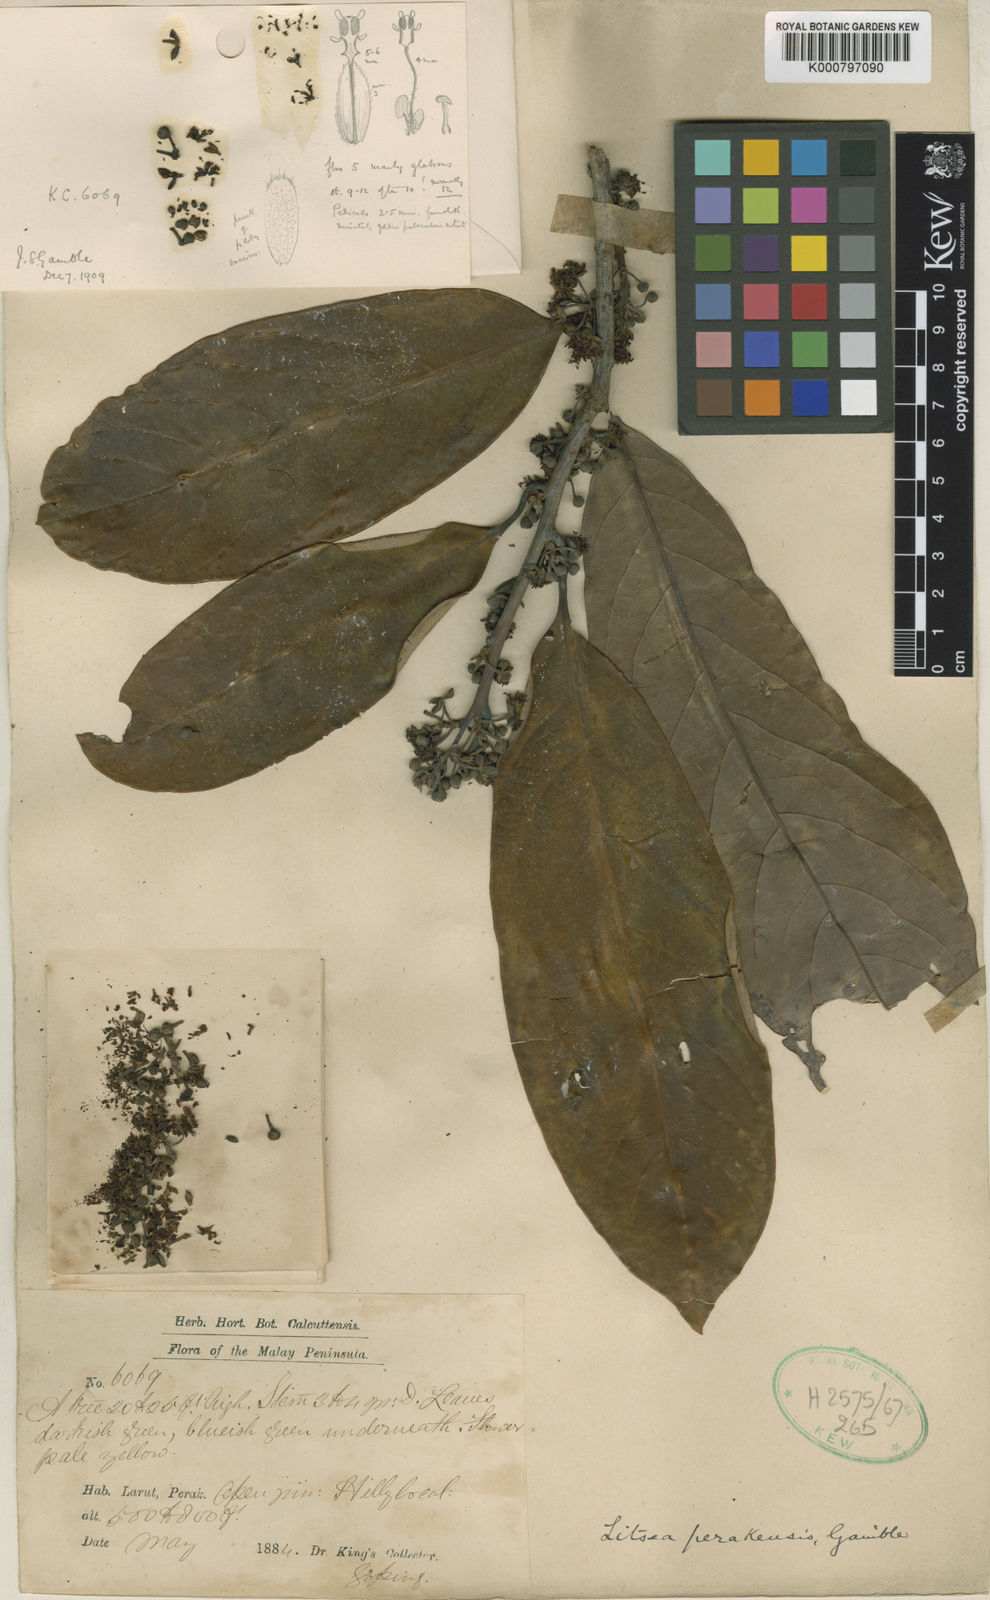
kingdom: Plantae
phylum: Tracheophyta
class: Magnoliopsida
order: Laurales
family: Lauraceae
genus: Litsea
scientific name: Litsea accedens
